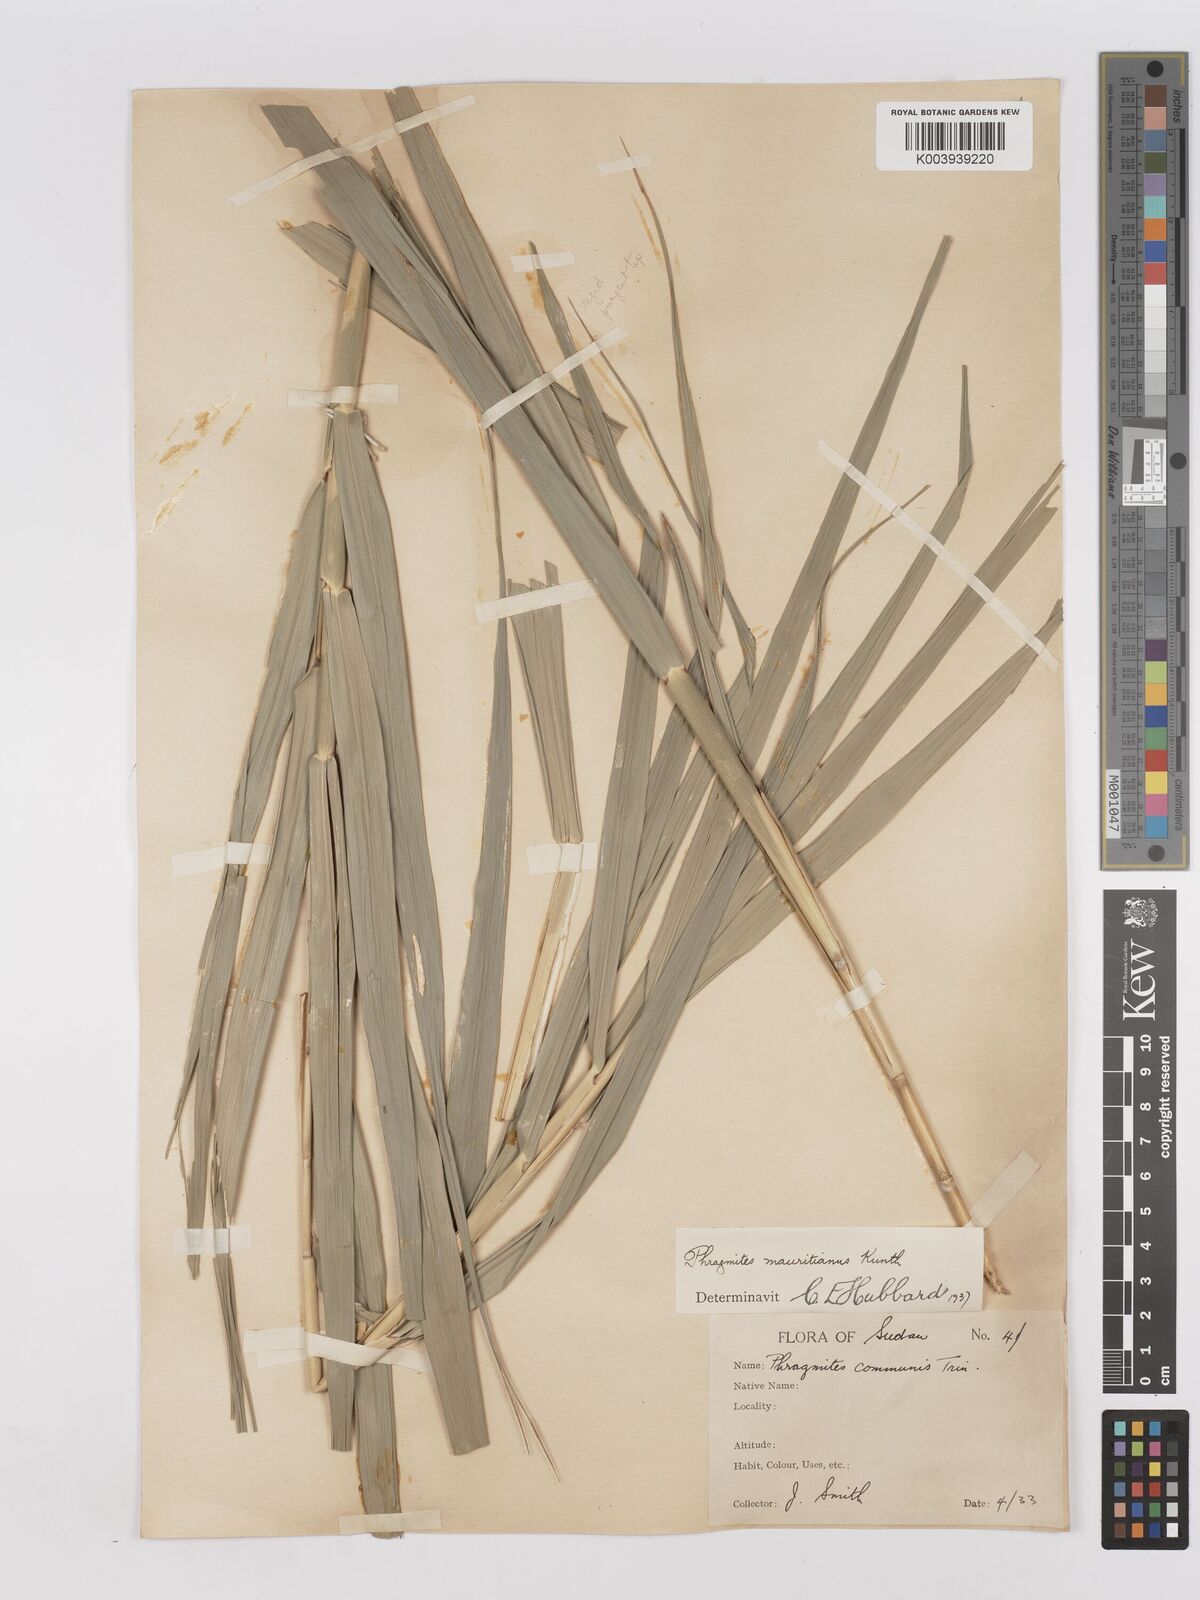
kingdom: Plantae
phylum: Tracheophyta
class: Liliopsida
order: Poales
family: Poaceae
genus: Phragmites
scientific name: Phragmites mauritianus
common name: Reed grass
